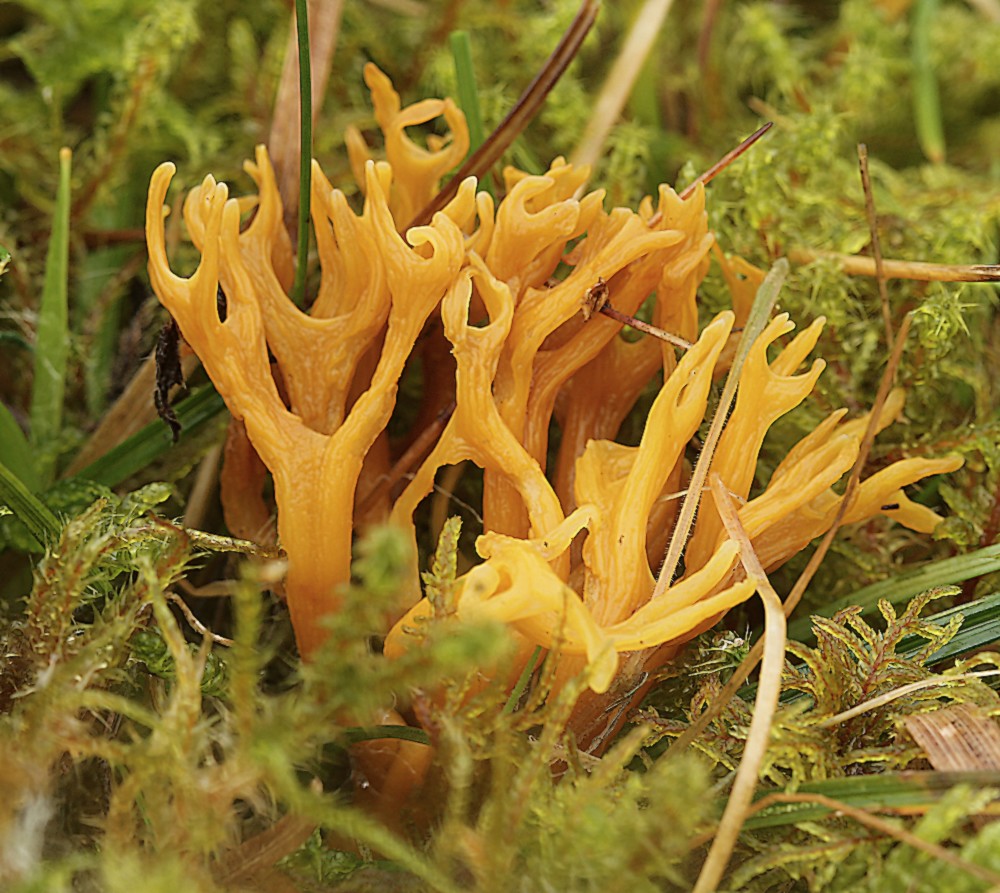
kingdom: Fungi
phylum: Basidiomycota
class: Agaricomycetes
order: Agaricales
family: Clavariaceae
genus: Clavulinopsis
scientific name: Clavulinopsis corniculata
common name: eng-køllesvamp
